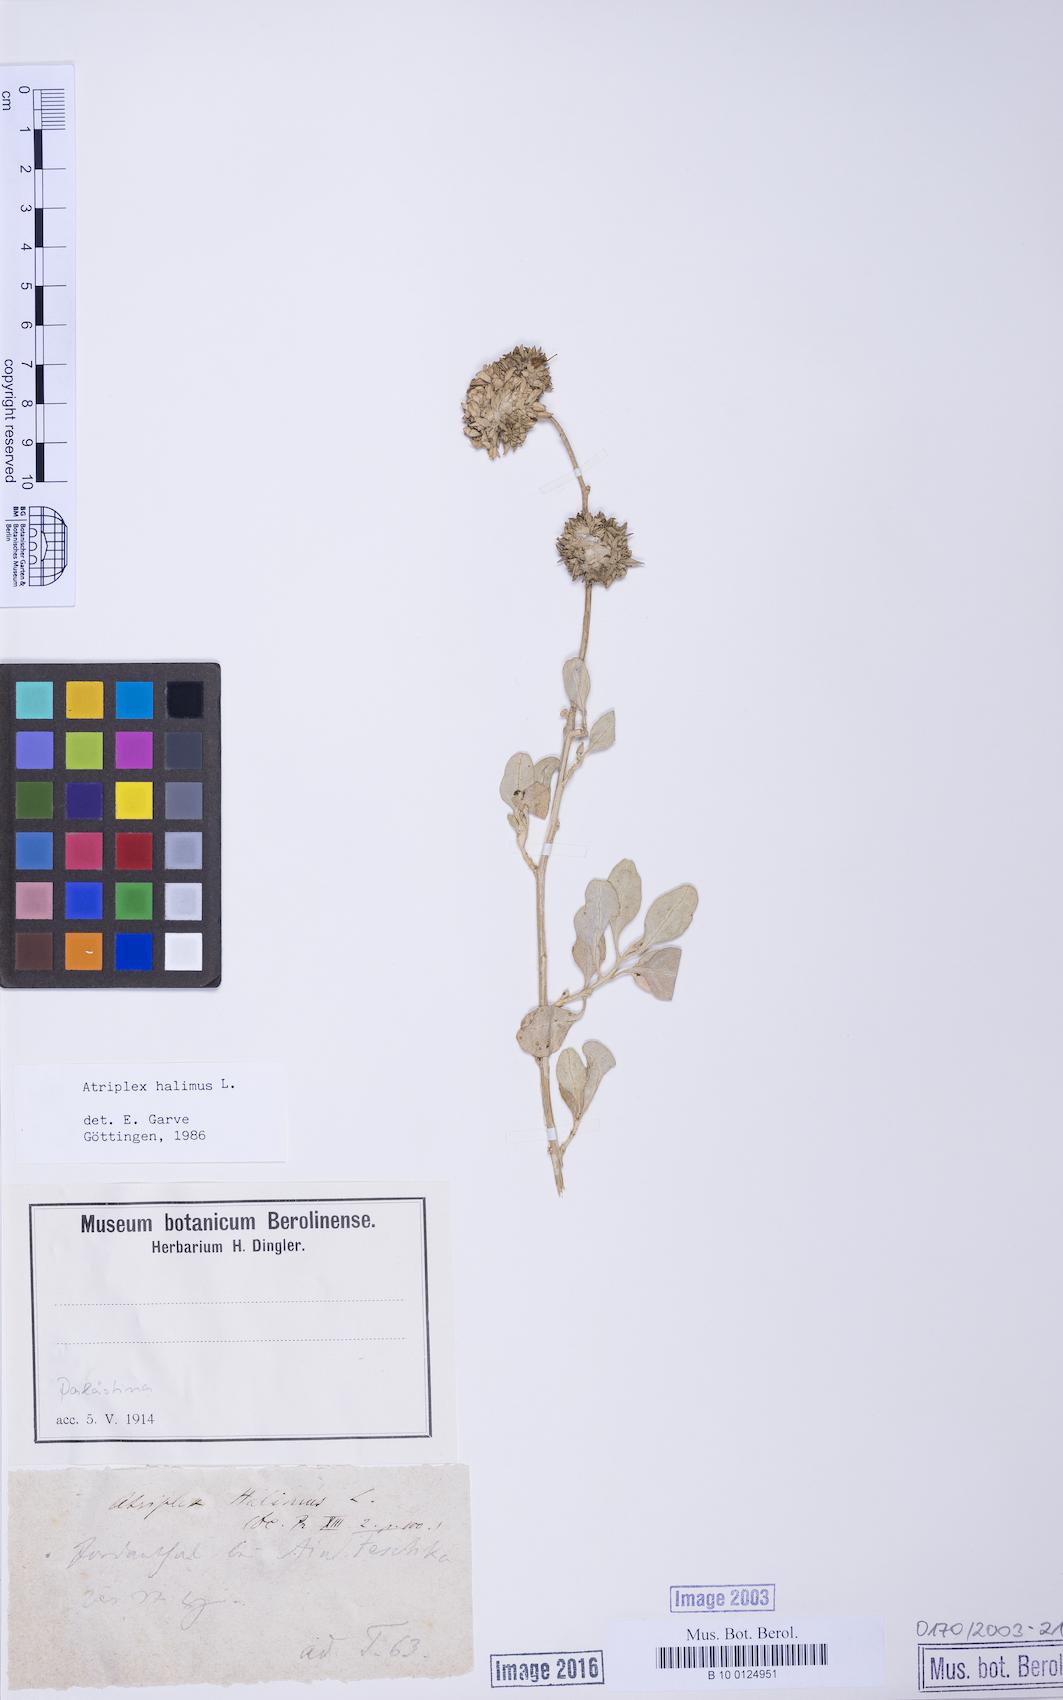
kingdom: Plantae
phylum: Tracheophyta
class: Magnoliopsida
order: Caryophyllales
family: Amaranthaceae
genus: Atriplex
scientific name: Atriplex halimus
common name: Shrubby orache
